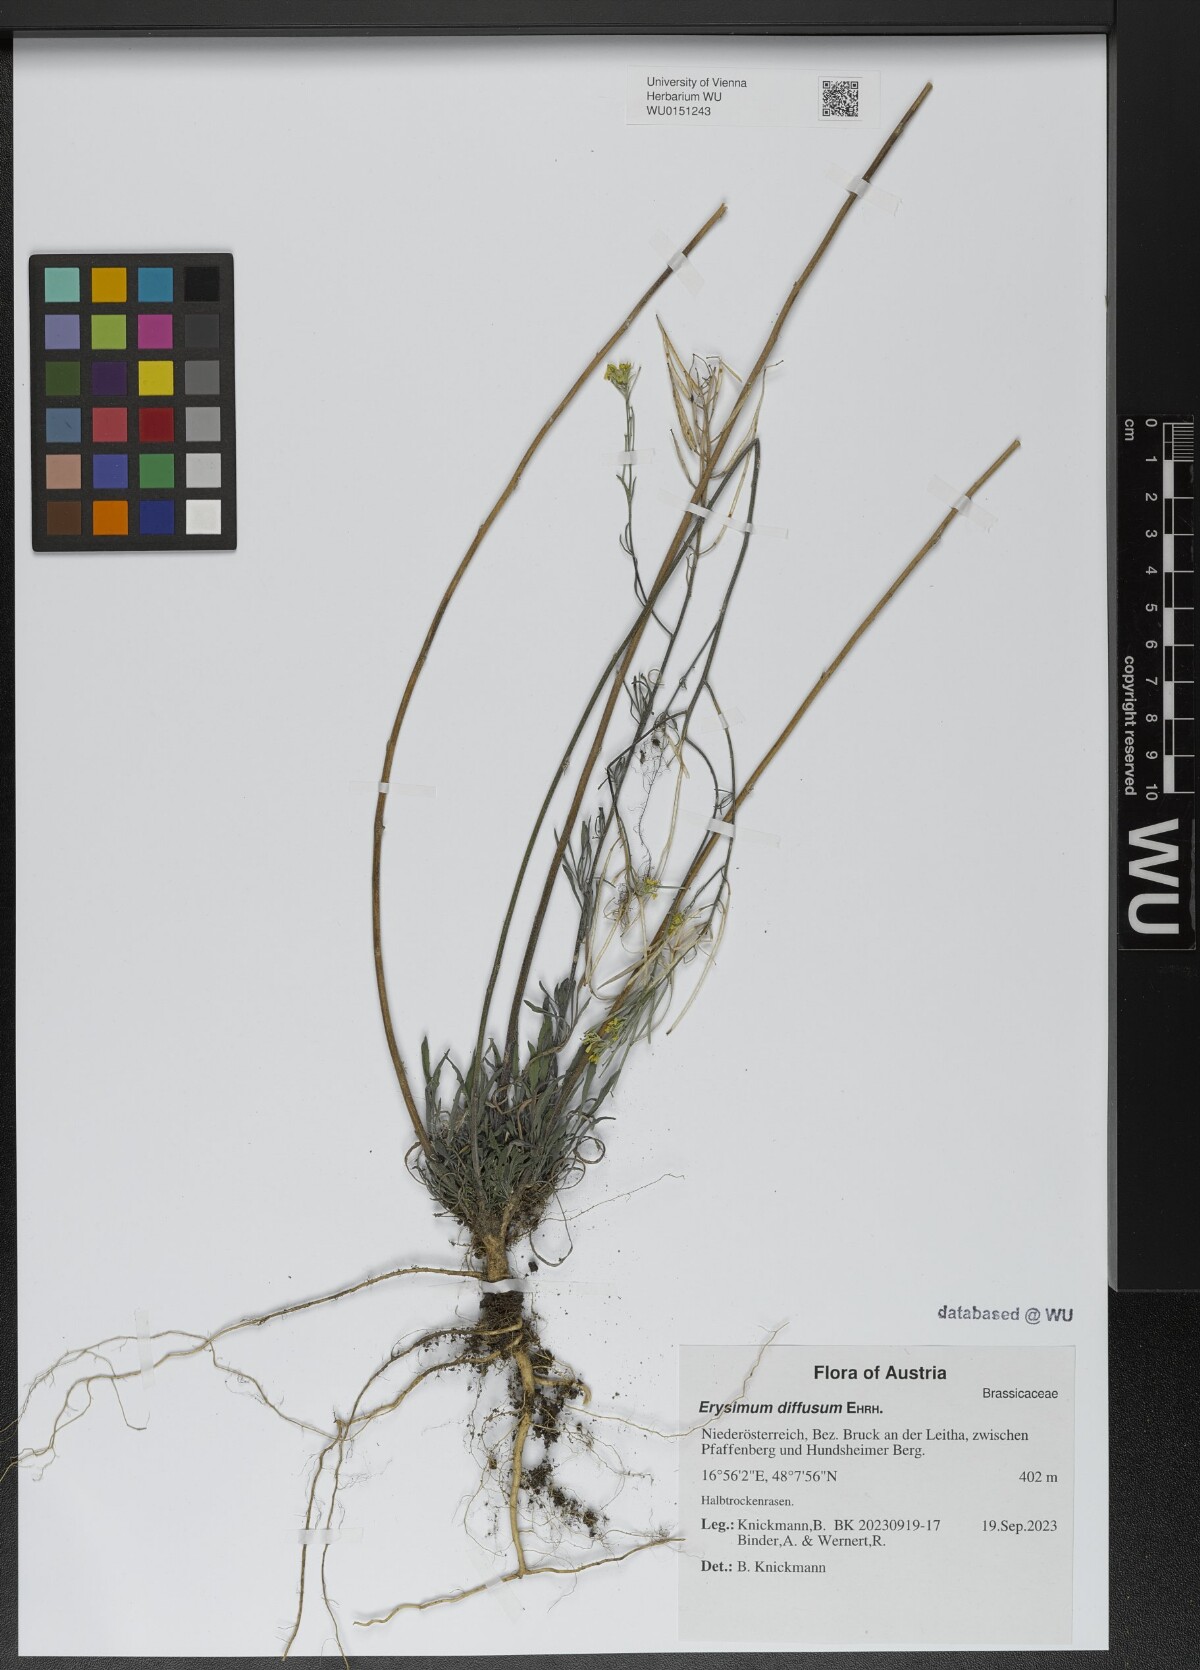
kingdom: Plantae
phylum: Tracheophyta
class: Magnoliopsida
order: Brassicales
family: Brassicaceae
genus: Erysimum
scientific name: Erysimum diffusum
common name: Diffuse wallflower
